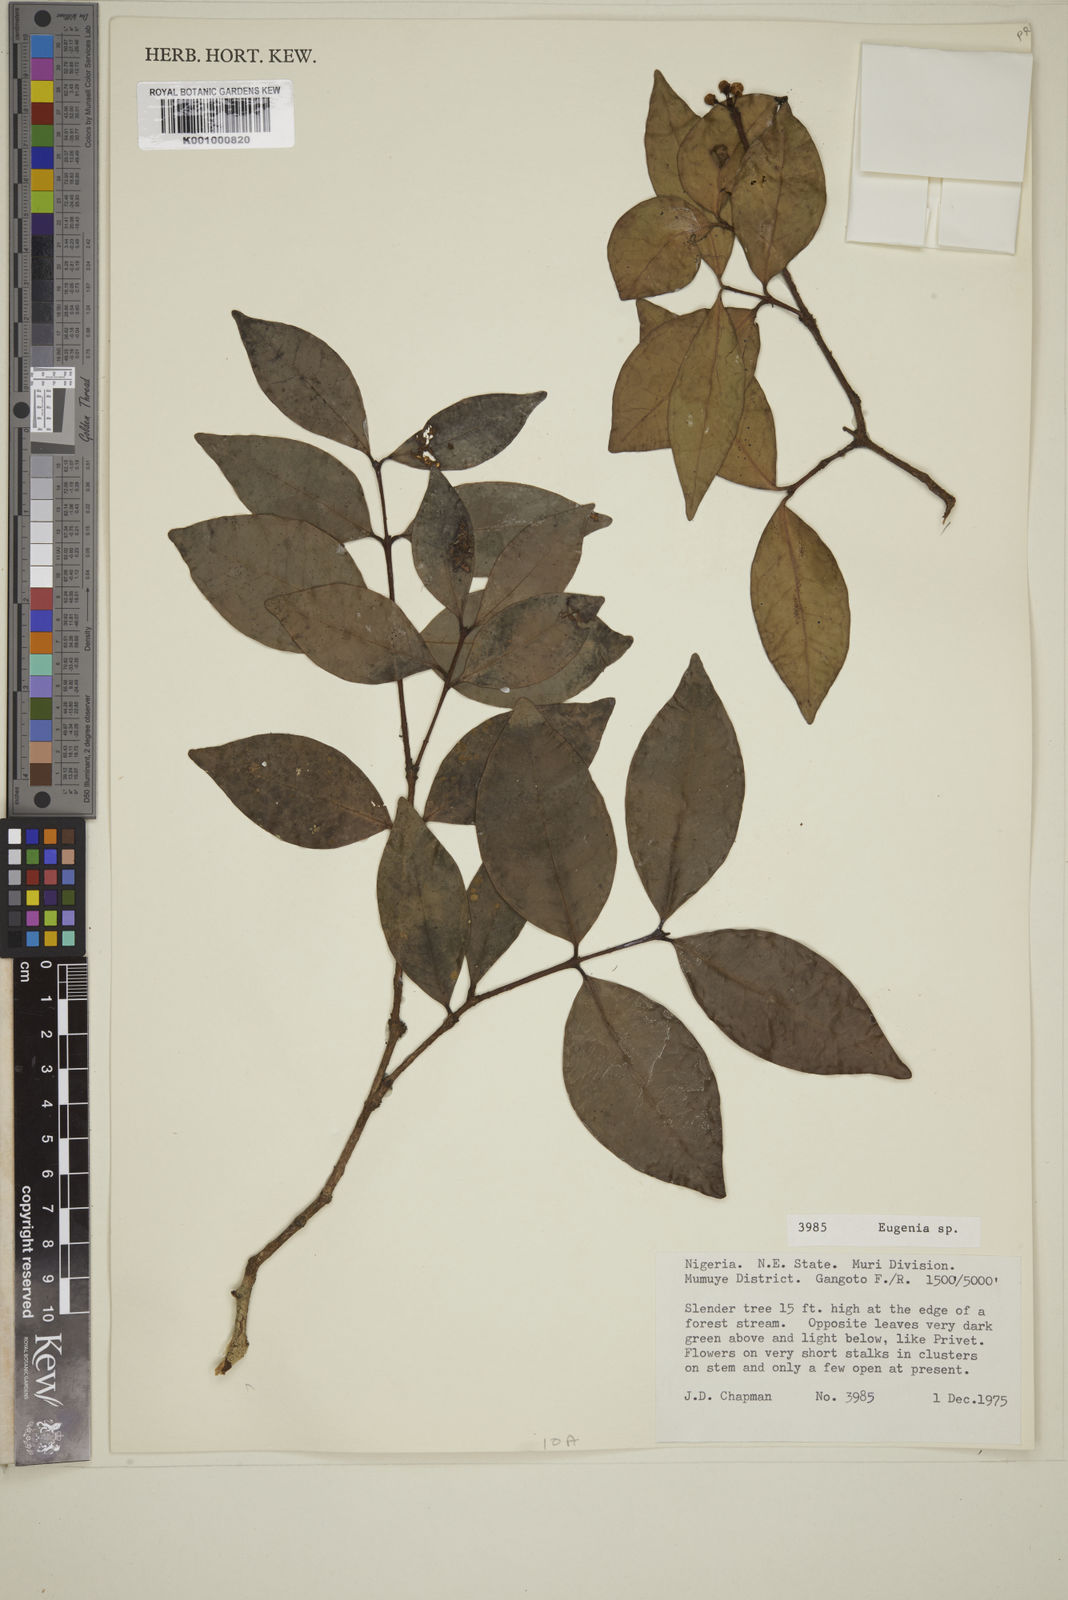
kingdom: Plantae
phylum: Tracheophyta
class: Magnoliopsida
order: Myrtales
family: Myrtaceae
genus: Eugenia
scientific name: Eugenia
